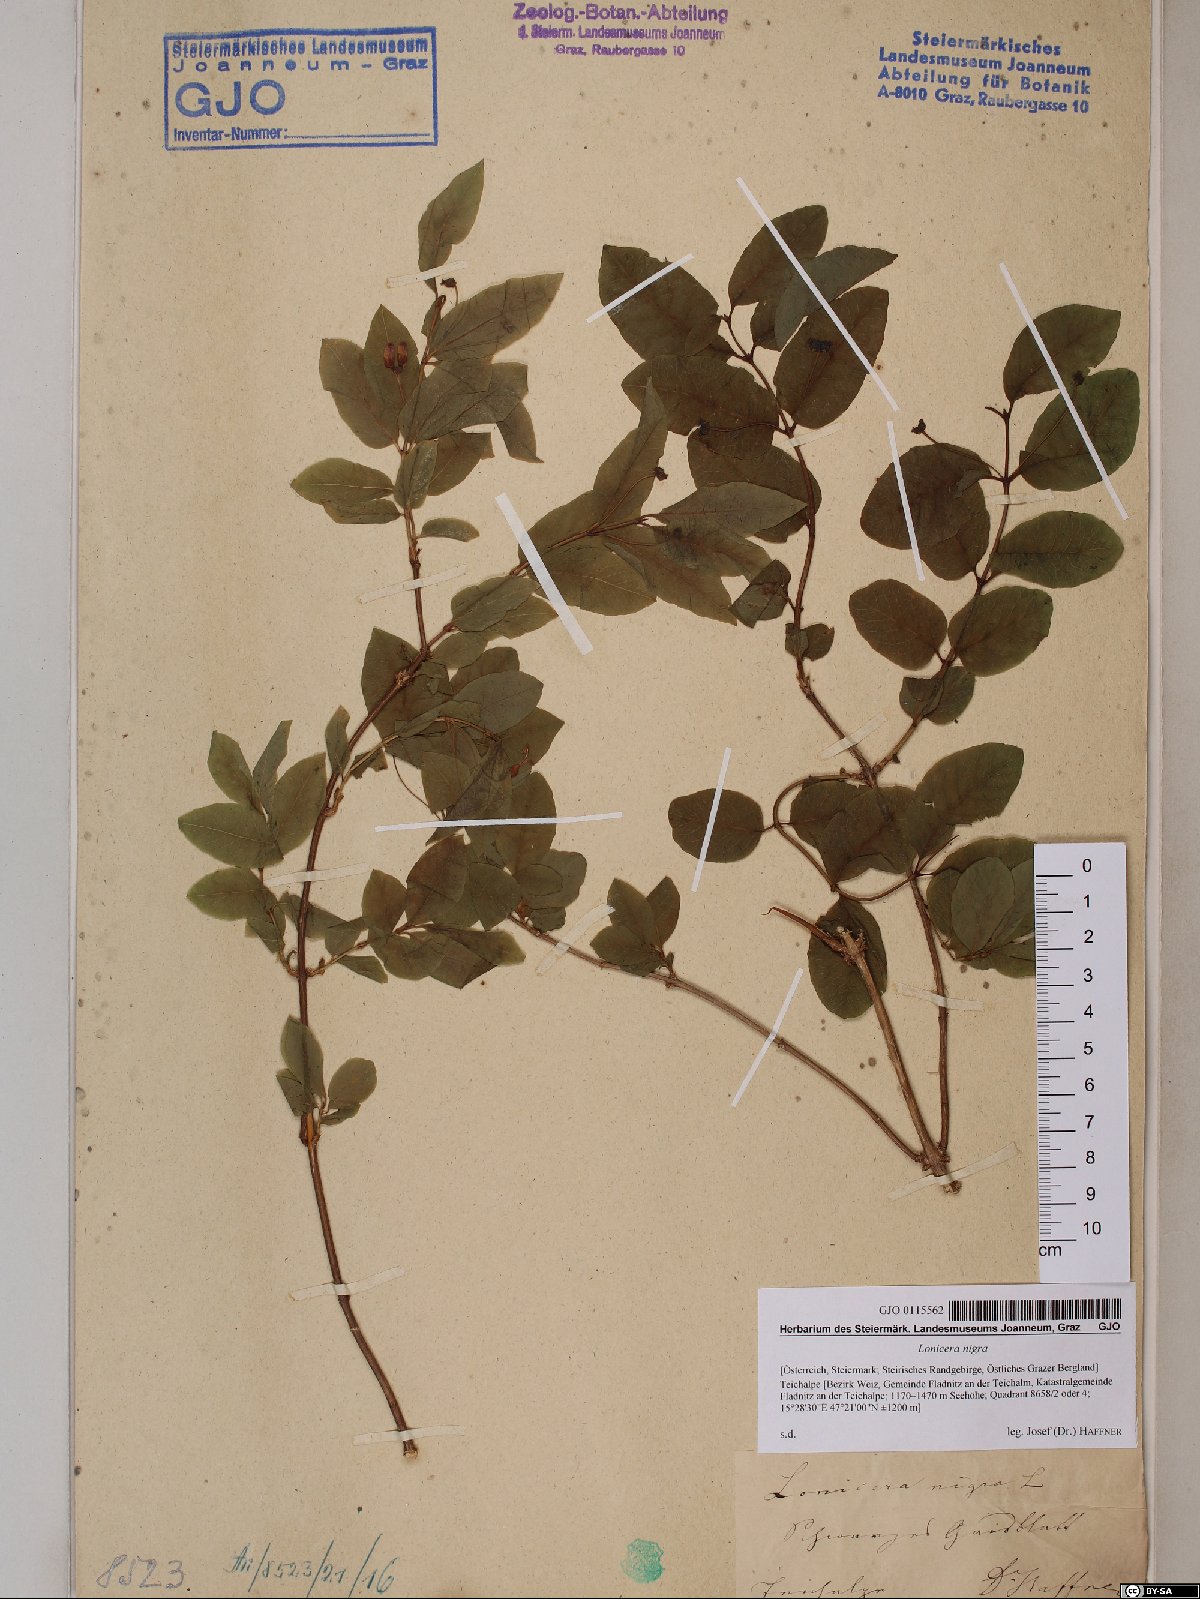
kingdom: Plantae
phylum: Tracheophyta
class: Magnoliopsida
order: Dipsacales
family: Caprifoliaceae
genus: Lonicera
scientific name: Lonicera nigra
